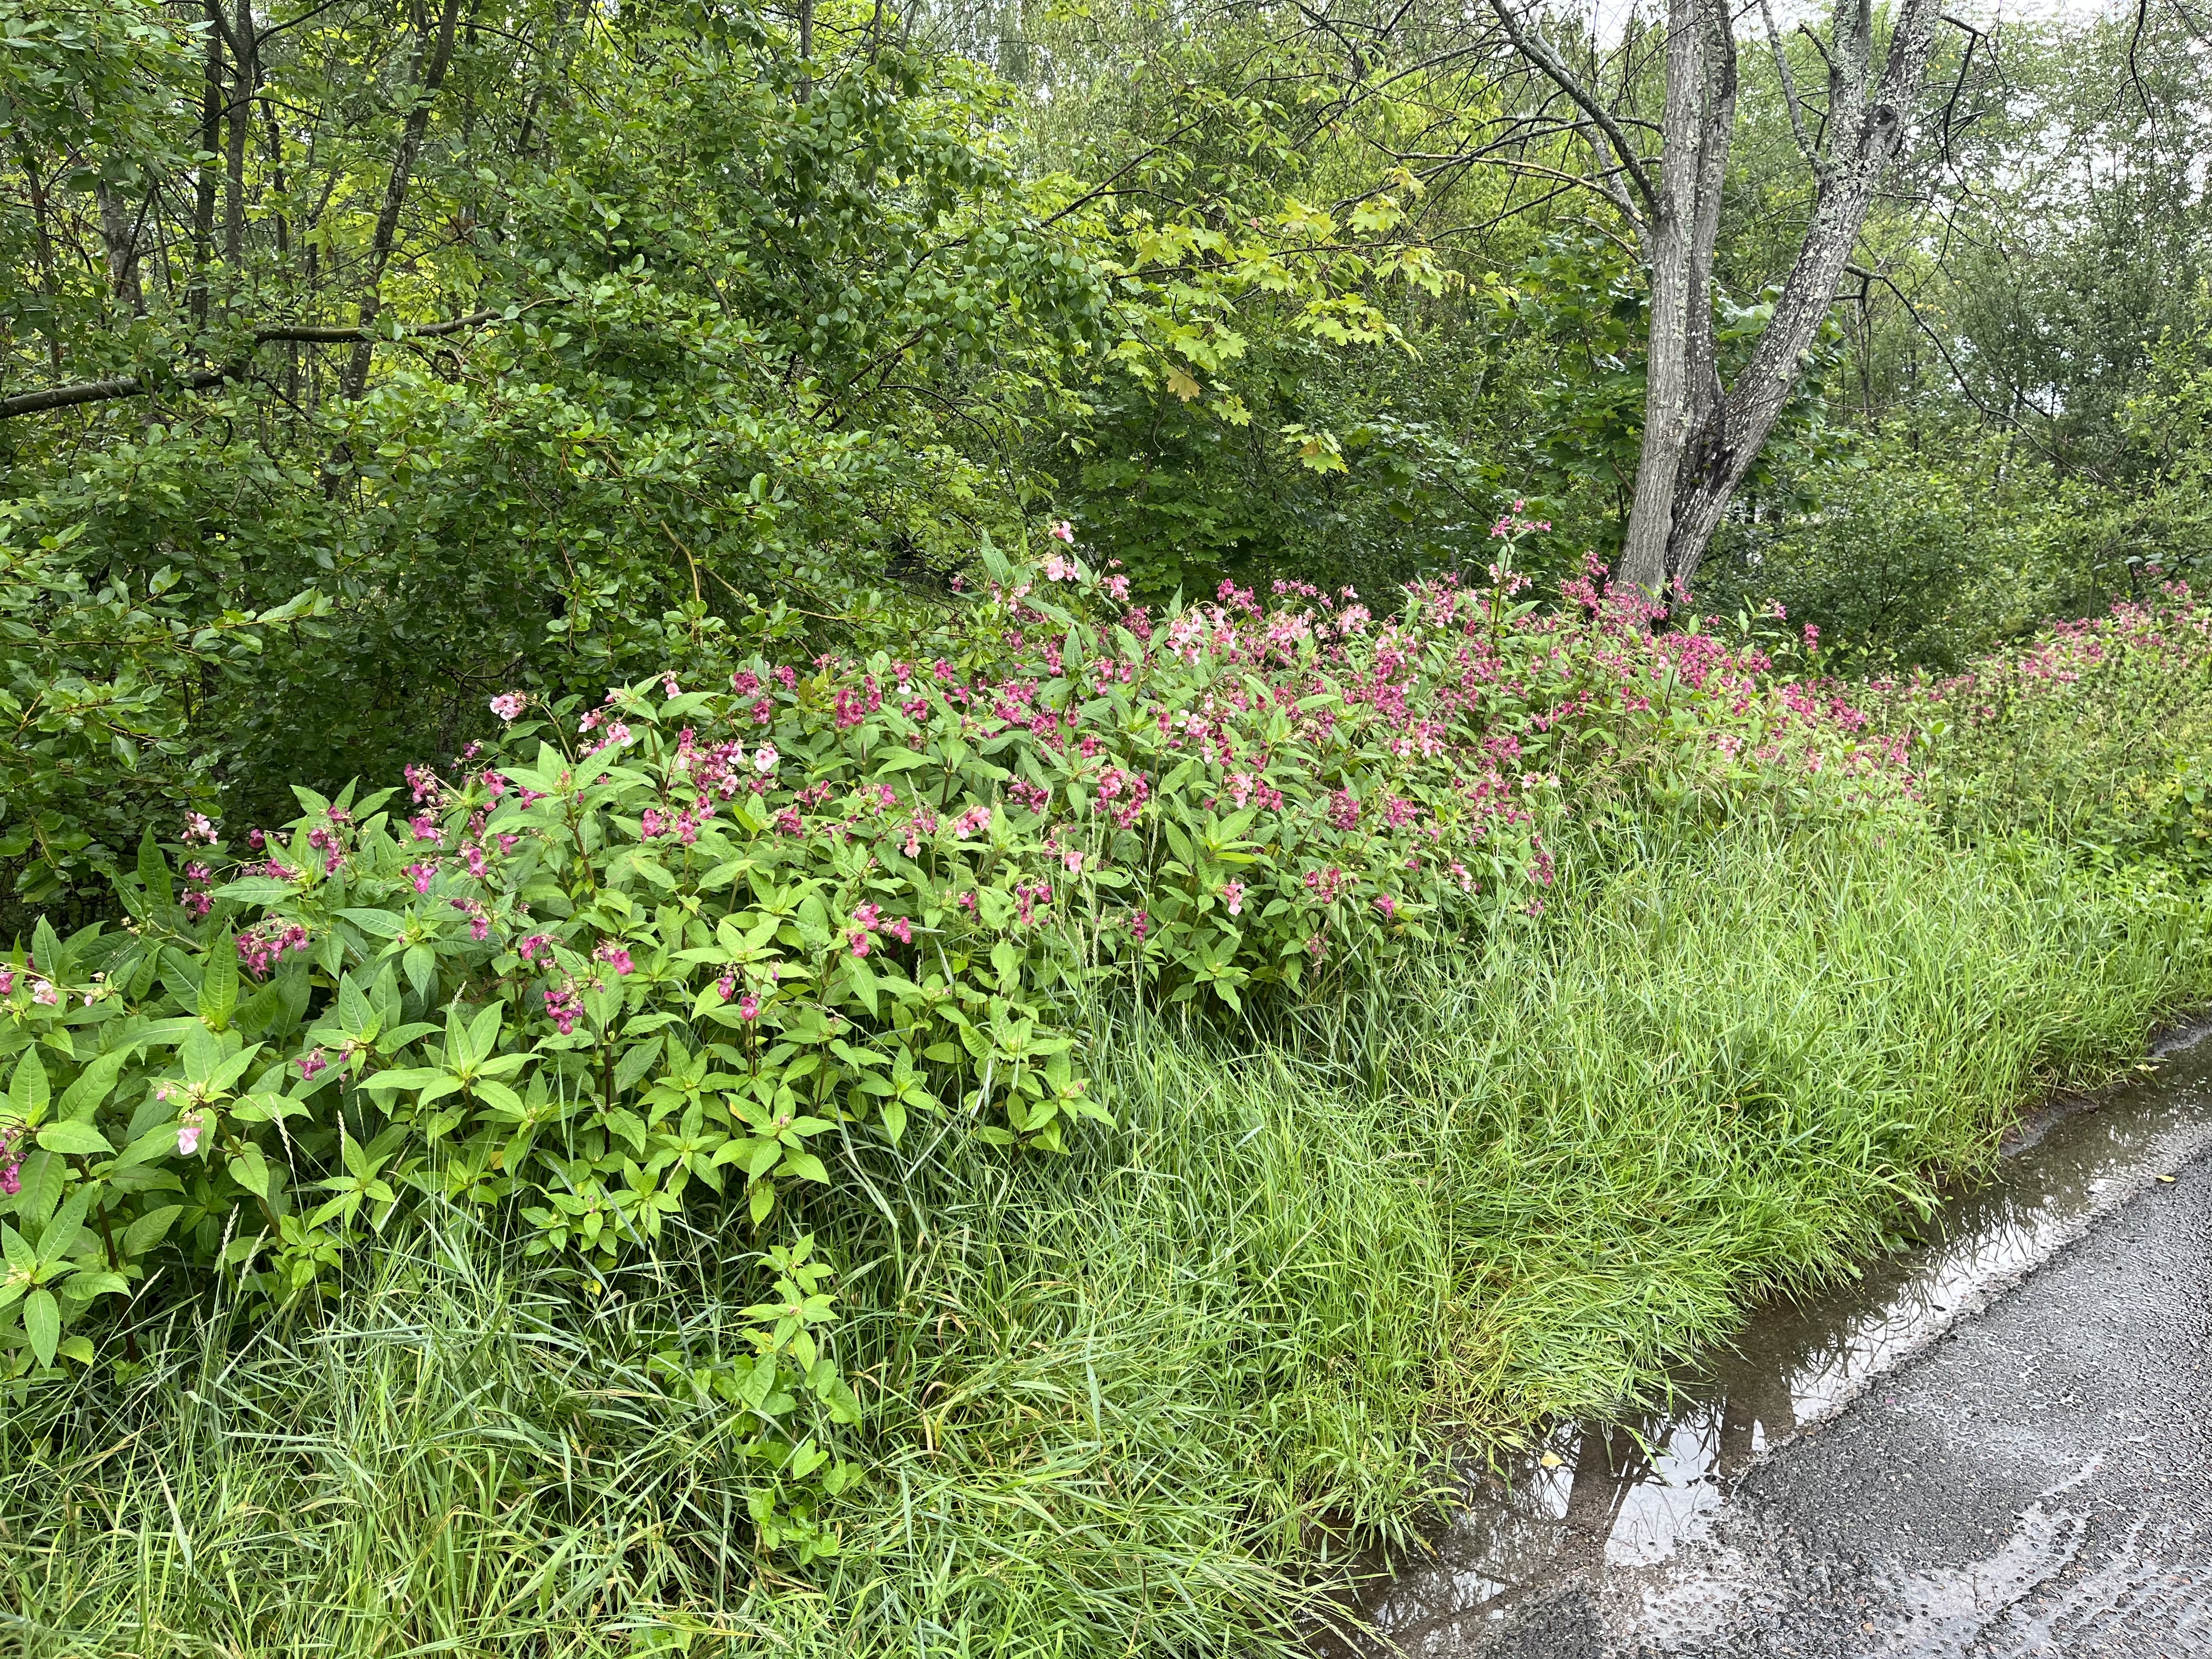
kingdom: Plantae
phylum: Tracheophyta
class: Magnoliopsida
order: Ericales
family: Balsaminaceae
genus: Impatiens
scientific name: Impatiens glandulifera
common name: Himalayan balsam
